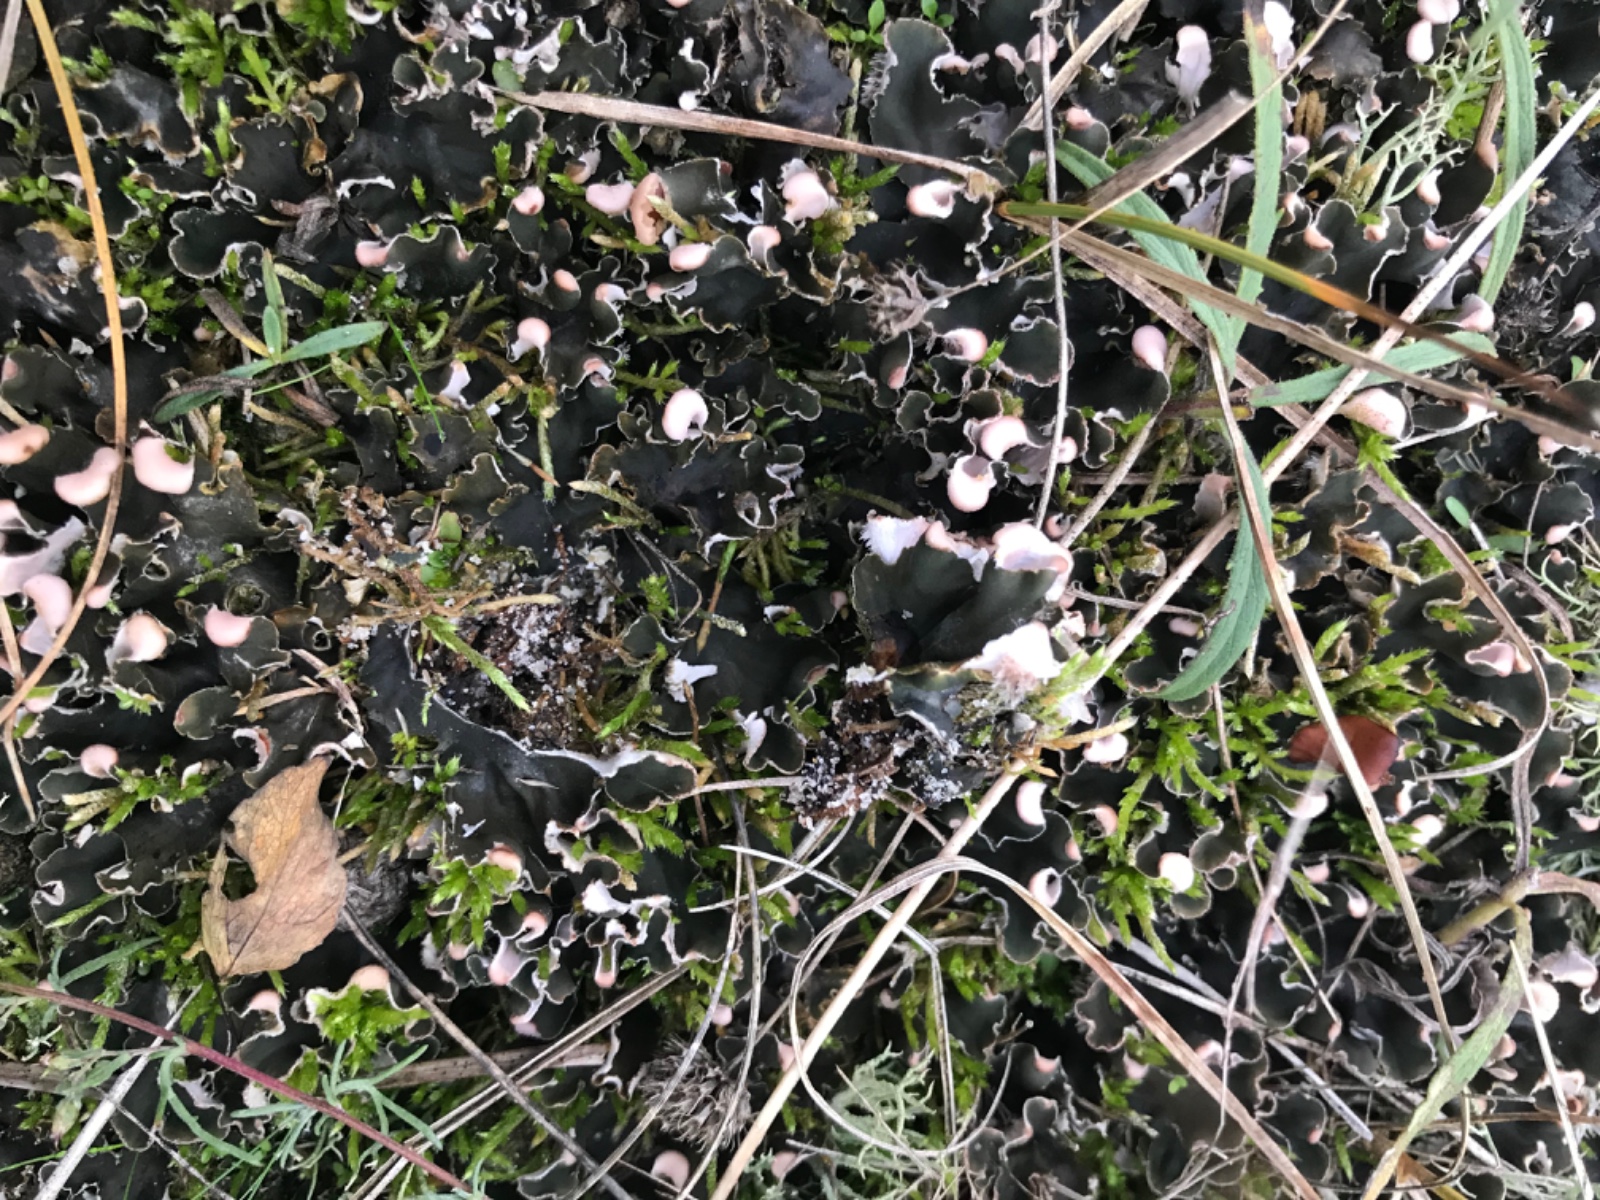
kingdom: Fungi
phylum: Ascomycota
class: Lecanoromycetes
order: Peltigerales
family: Peltigeraceae
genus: Peltigera
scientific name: Peltigera
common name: skjoldlav
